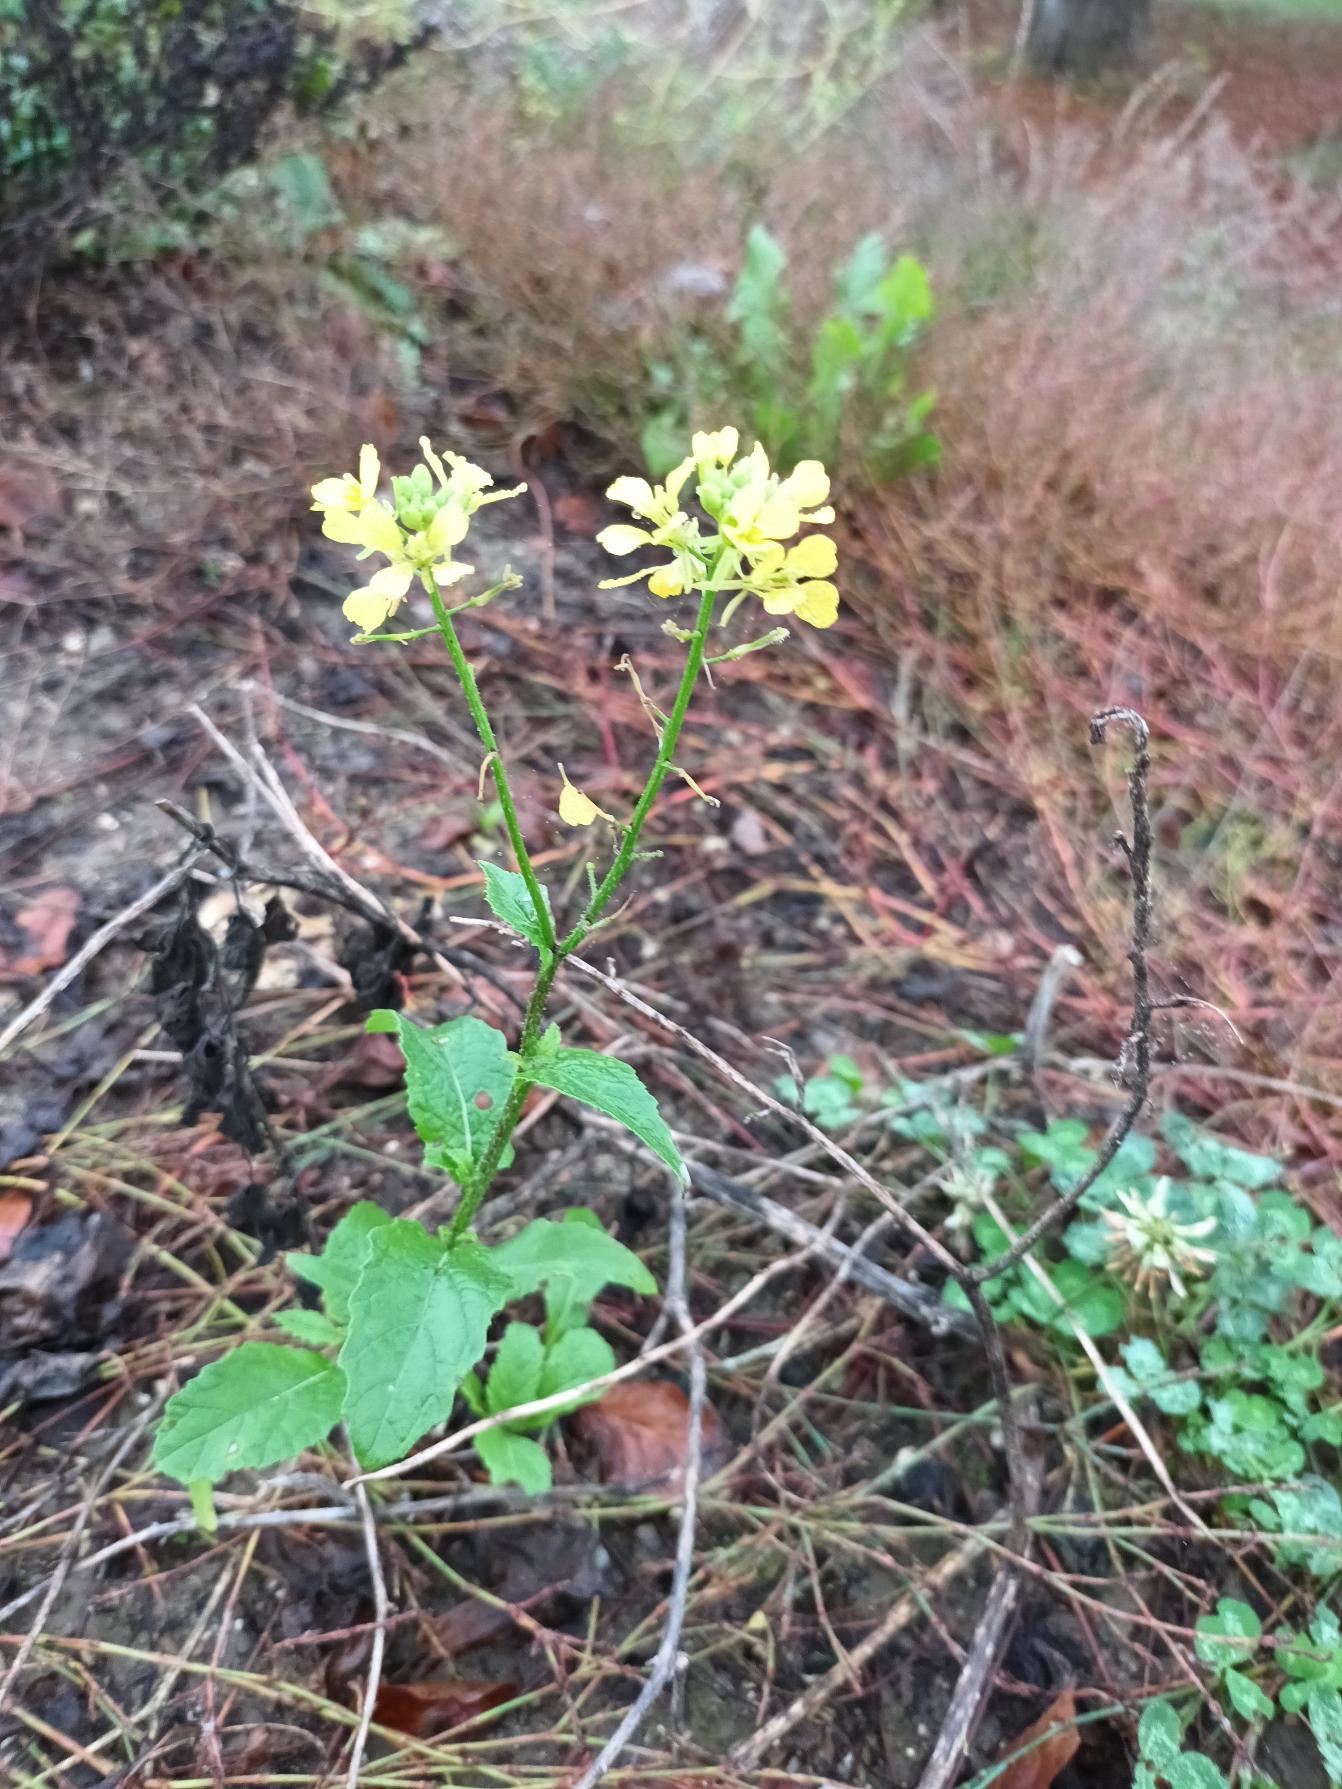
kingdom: Plantae
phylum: Tracheophyta
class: Magnoliopsida
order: Brassicales
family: Brassicaceae
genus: Sinapis
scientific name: Sinapis arvensis
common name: Ager-sennep
